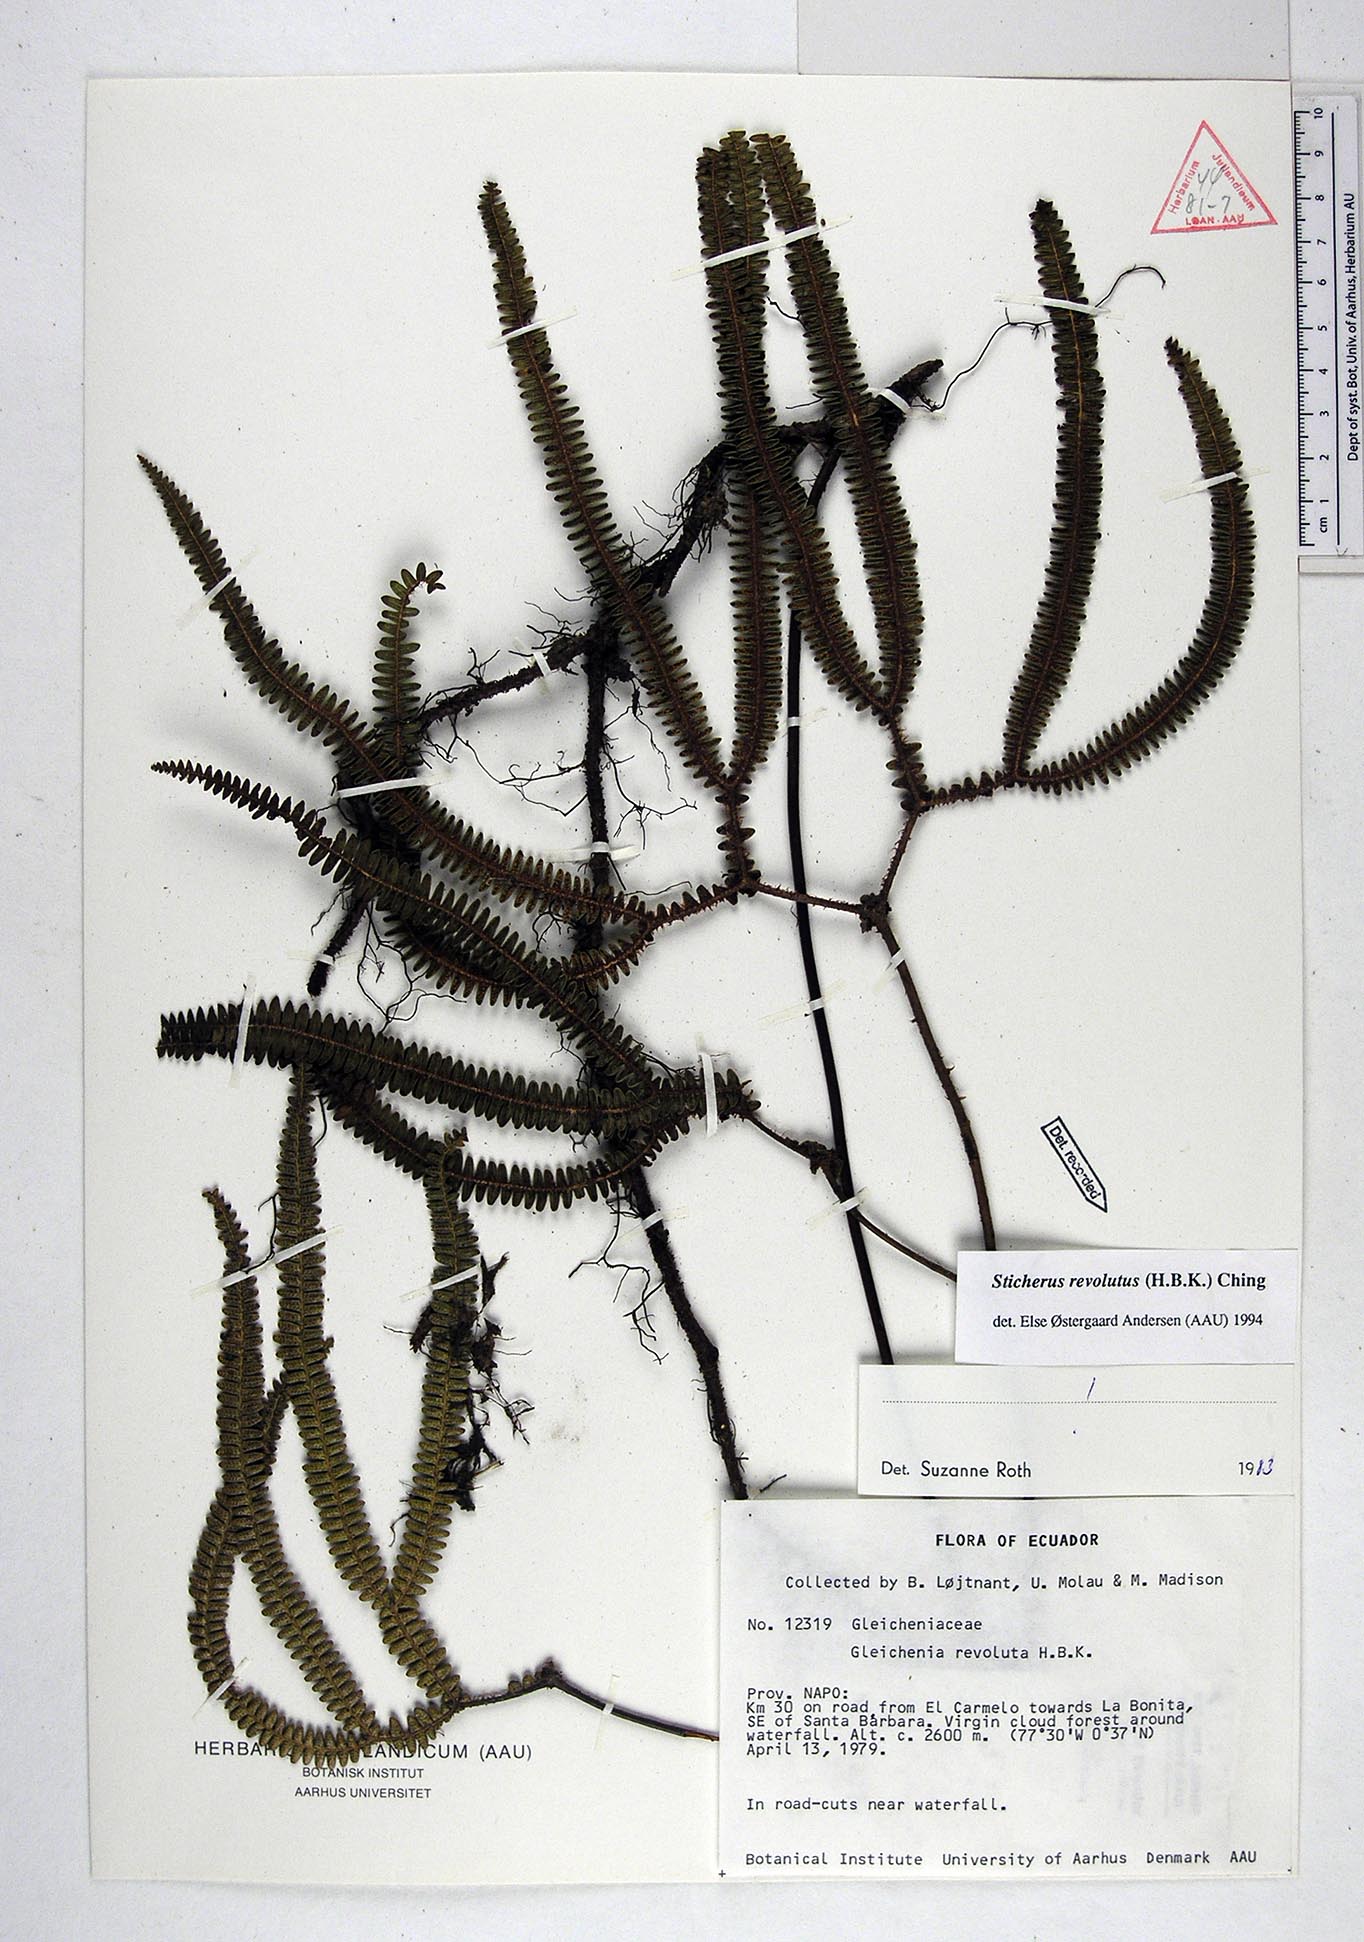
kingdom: Plantae
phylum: Tracheophyta
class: Polypodiopsida
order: Gleicheniales
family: Gleicheniaceae
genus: Sticherus
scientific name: Sticherus revolutus
